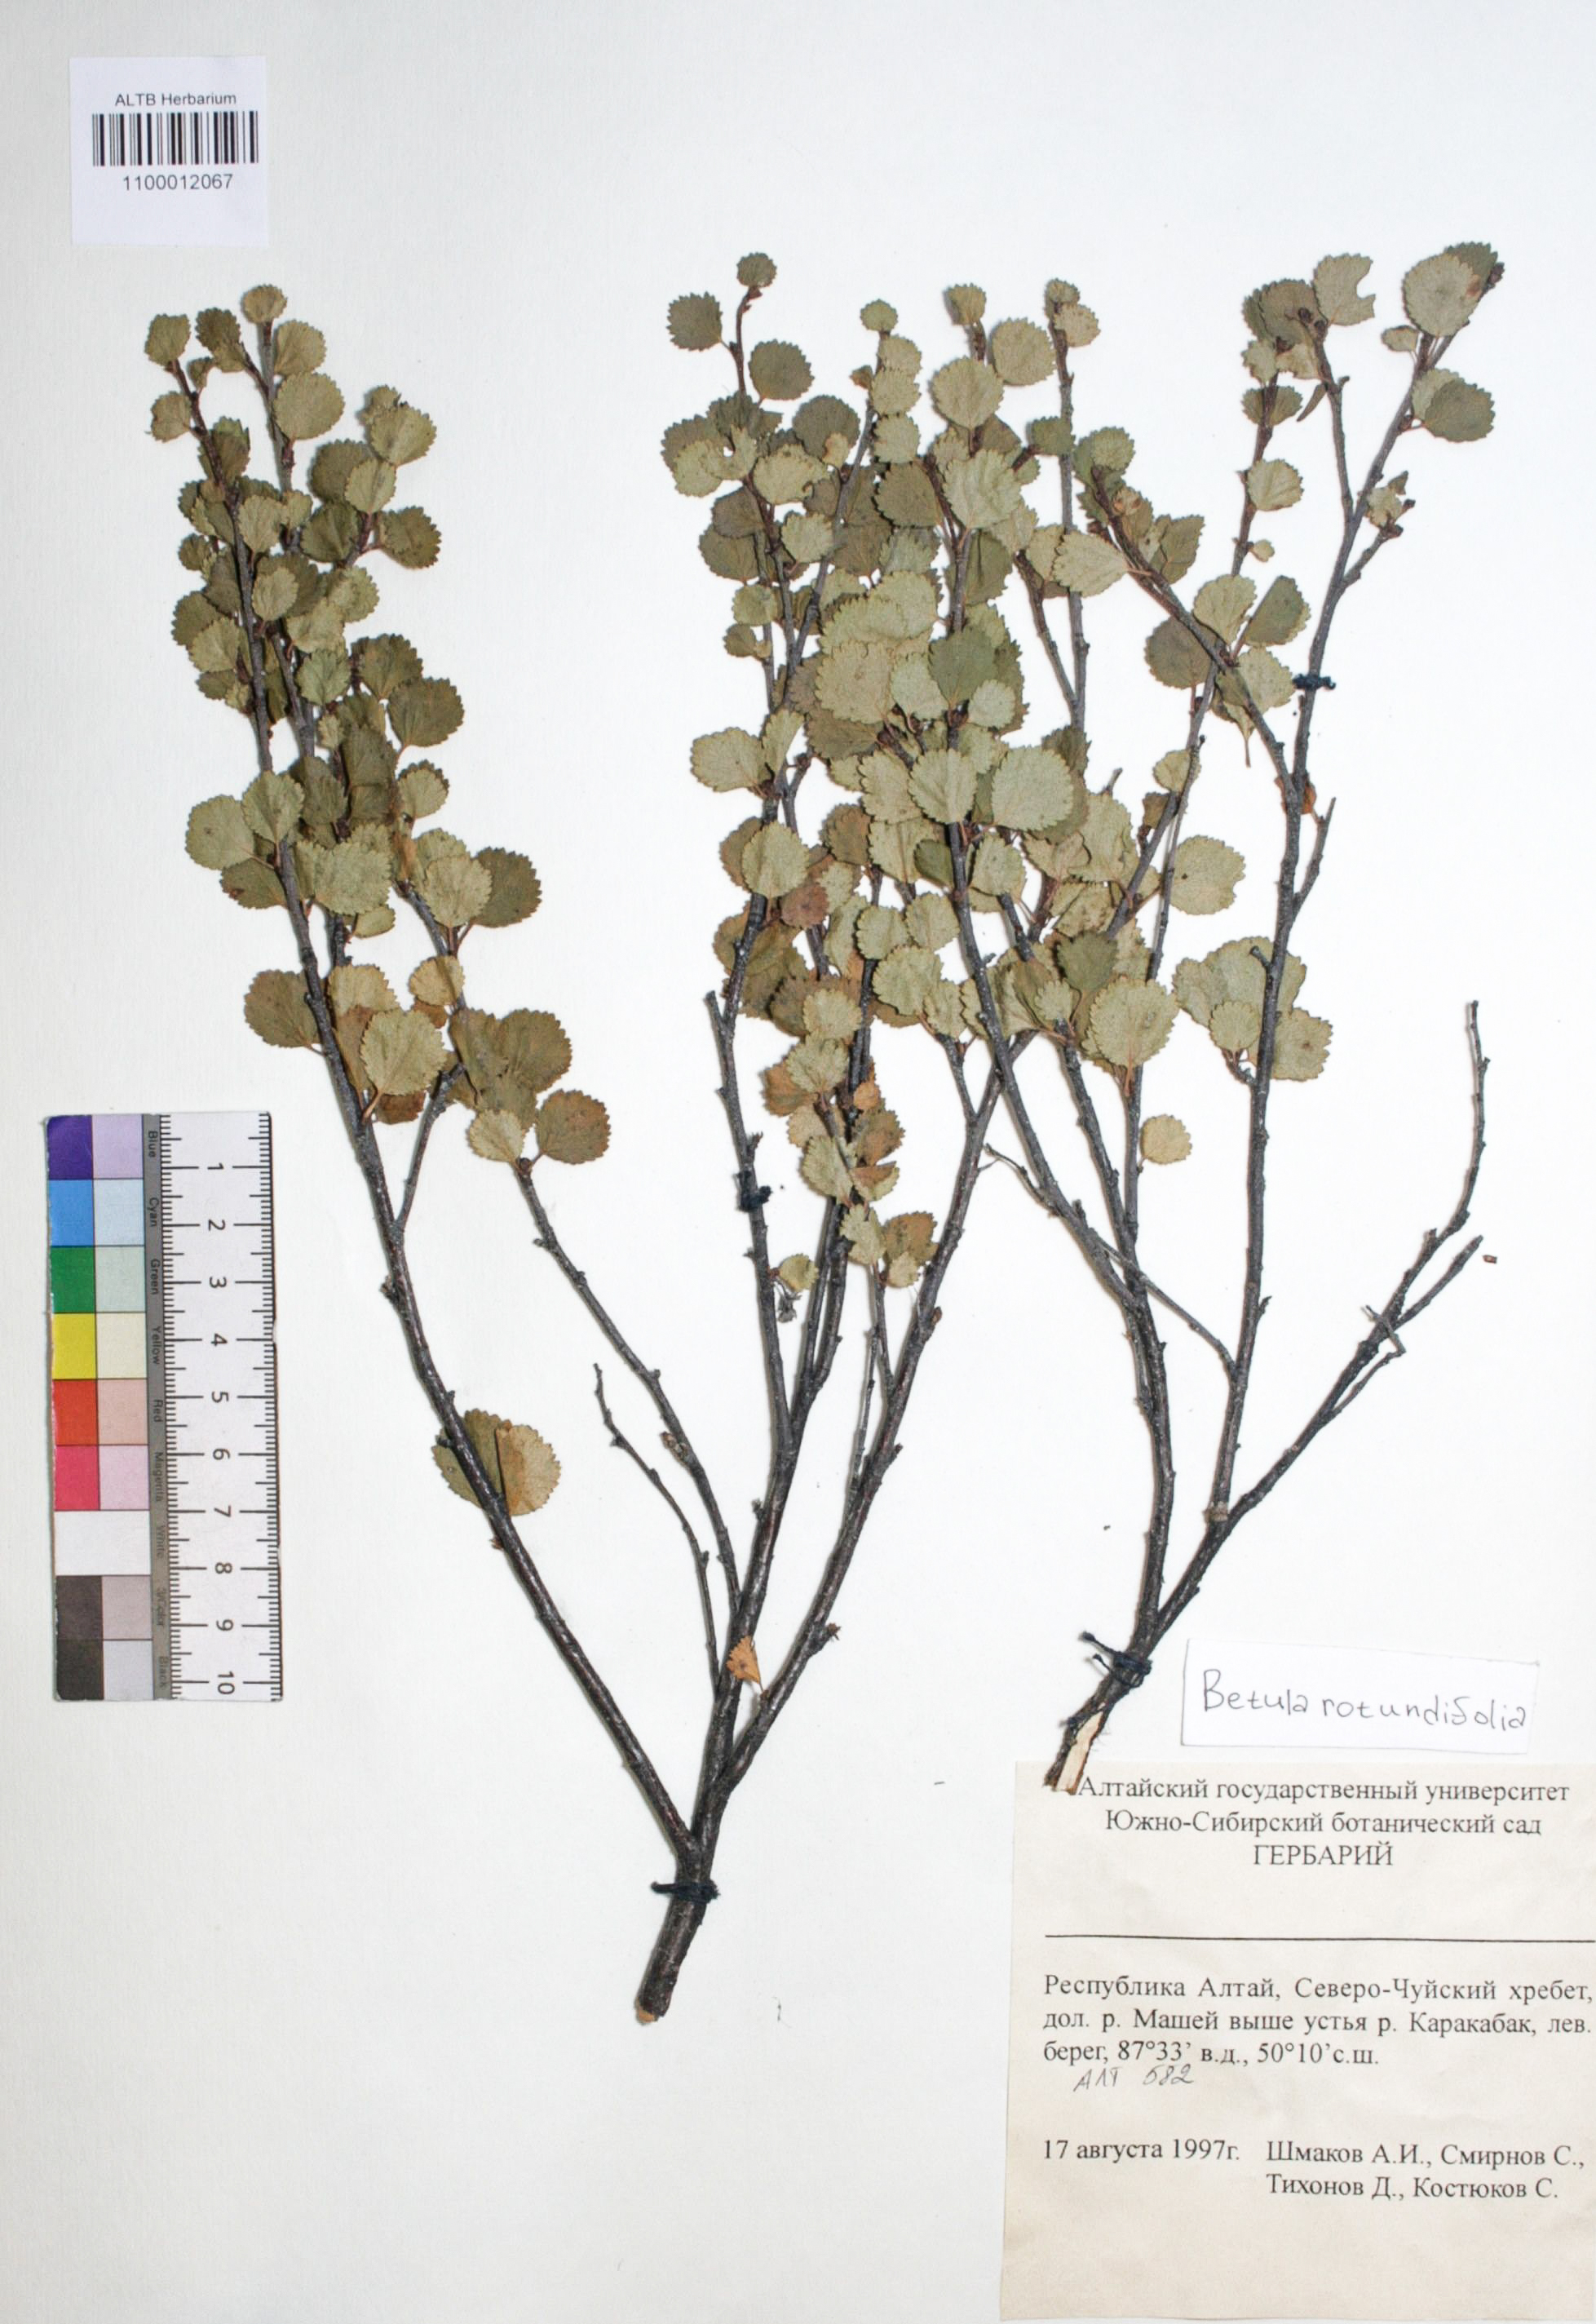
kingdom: Plantae
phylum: Tracheophyta
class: Magnoliopsida
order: Fagales
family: Betulaceae
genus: Betula
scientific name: Betula glandulosa
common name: Dwarf birch
